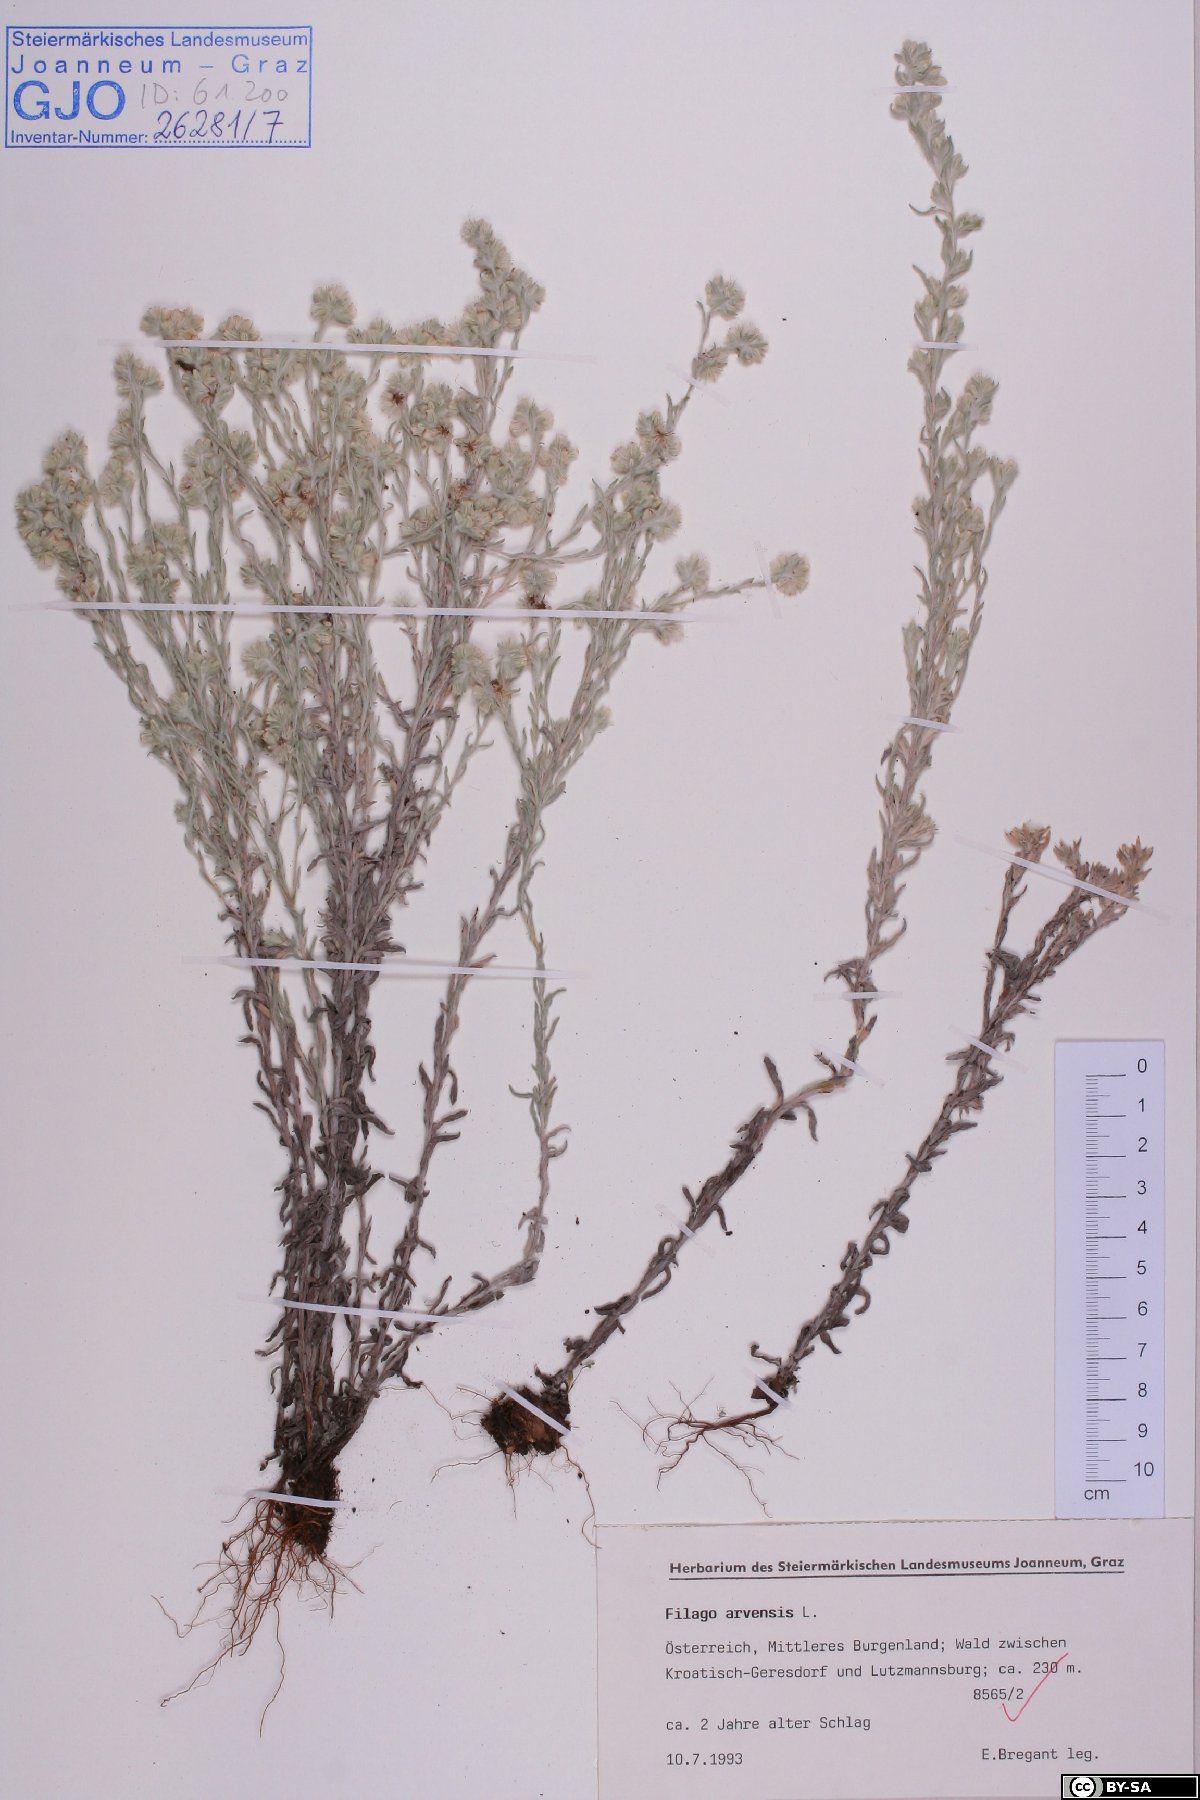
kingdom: Plantae
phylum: Tracheophyta
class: Magnoliopsida
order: Asterales
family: Asteraceae
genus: Filago
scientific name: Filago arvensis
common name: Field cudweed
